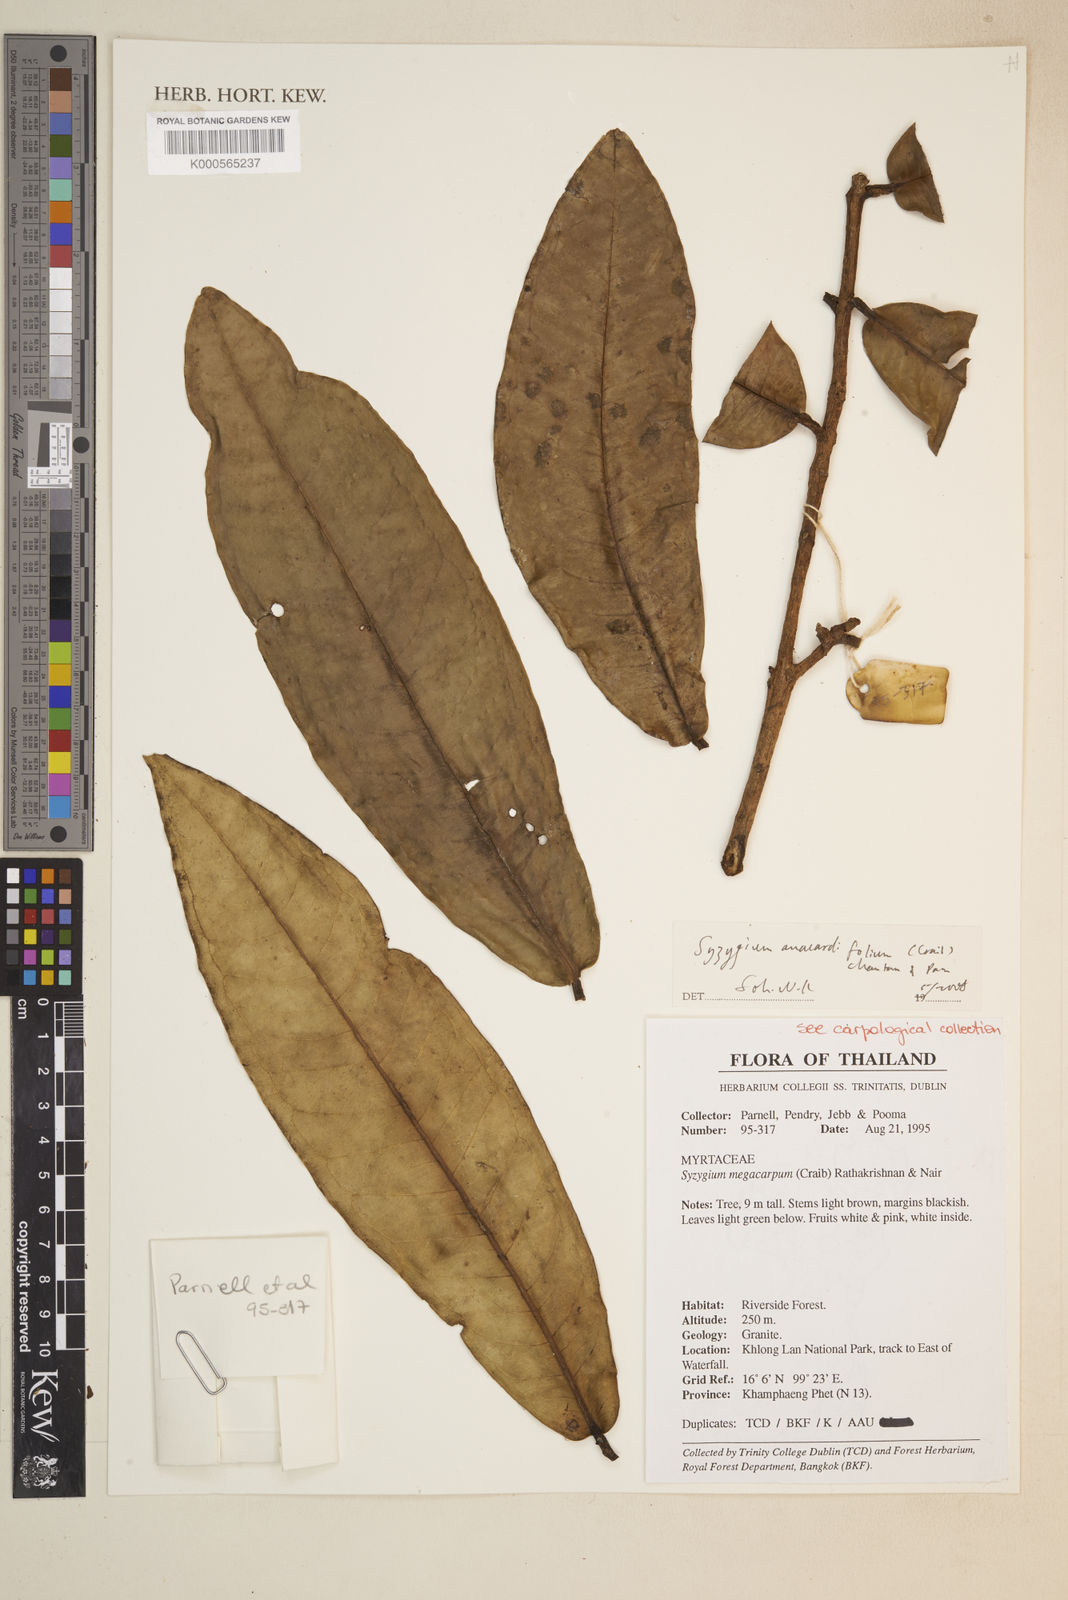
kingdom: Plantae
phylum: Tracheophyta
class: Magnoliopsida
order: Myrtales
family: Myrtaceae
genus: Syzygium
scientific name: Syzygium siamense
